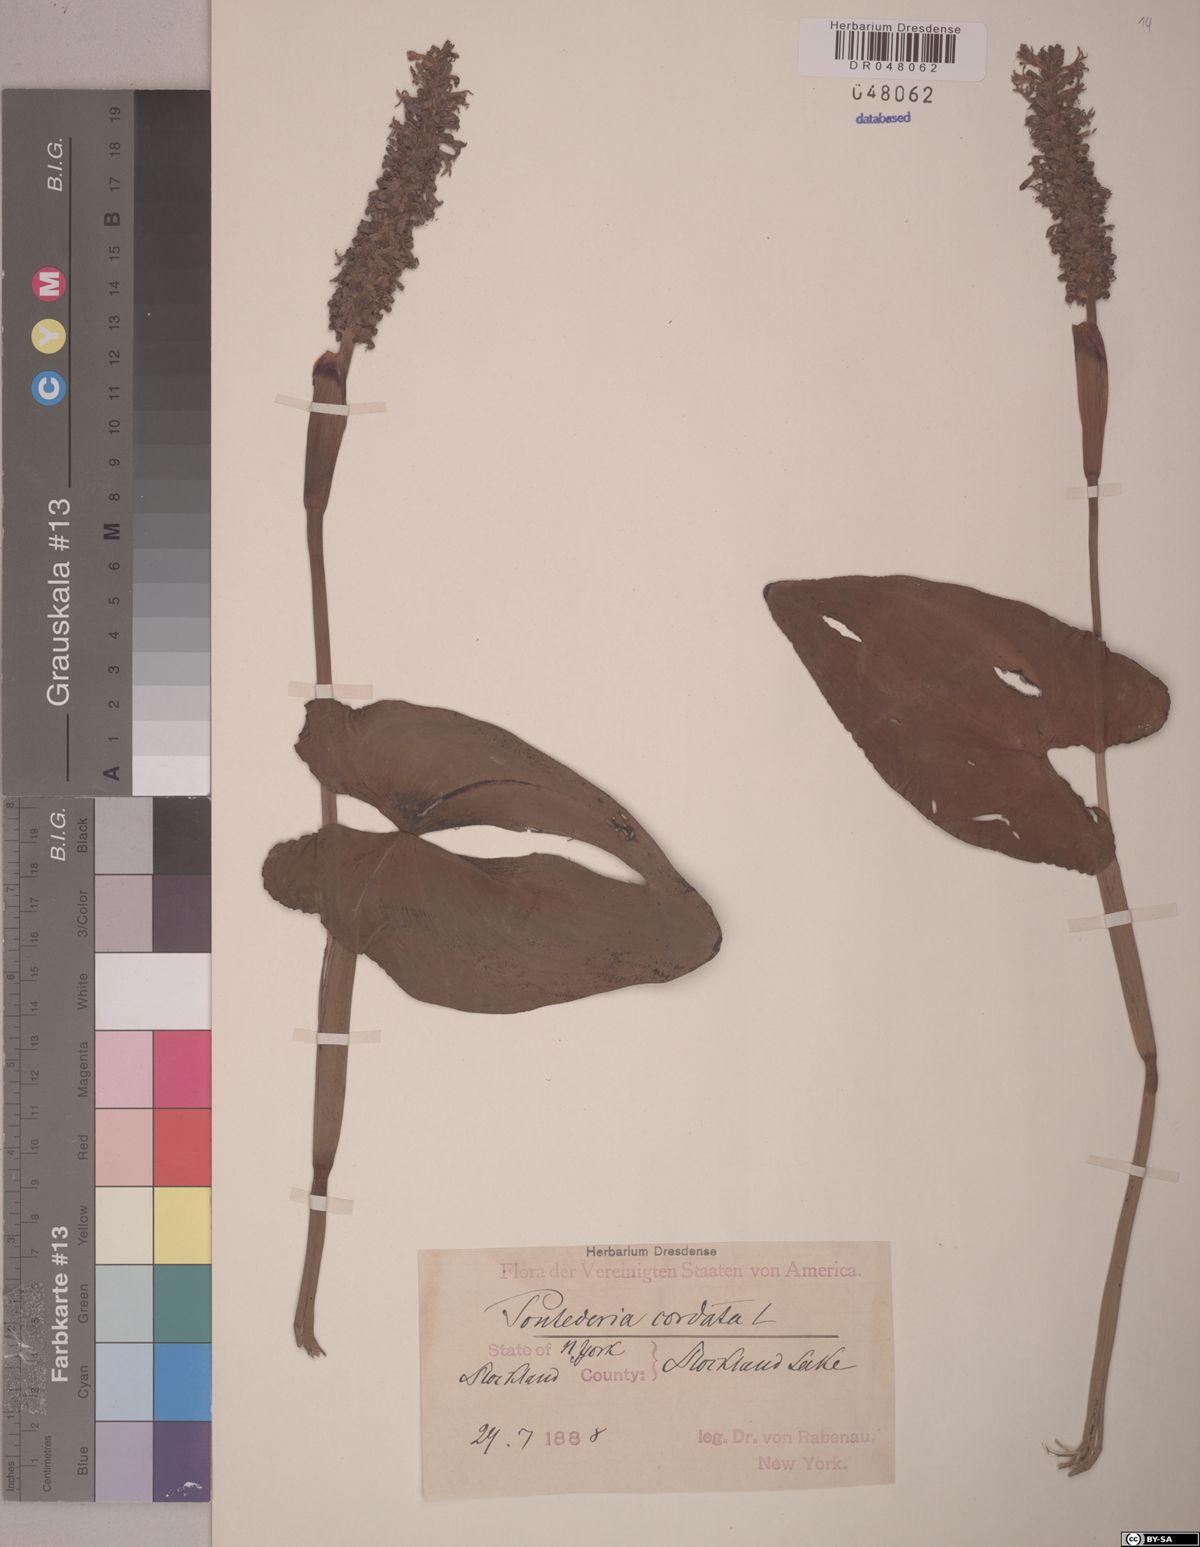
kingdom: Plantae
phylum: Tracheophyta
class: Liliopsida
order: Commelinales
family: Pontederiaceae
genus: Pontederia
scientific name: Pontederia cordata
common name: Pickerelweed
